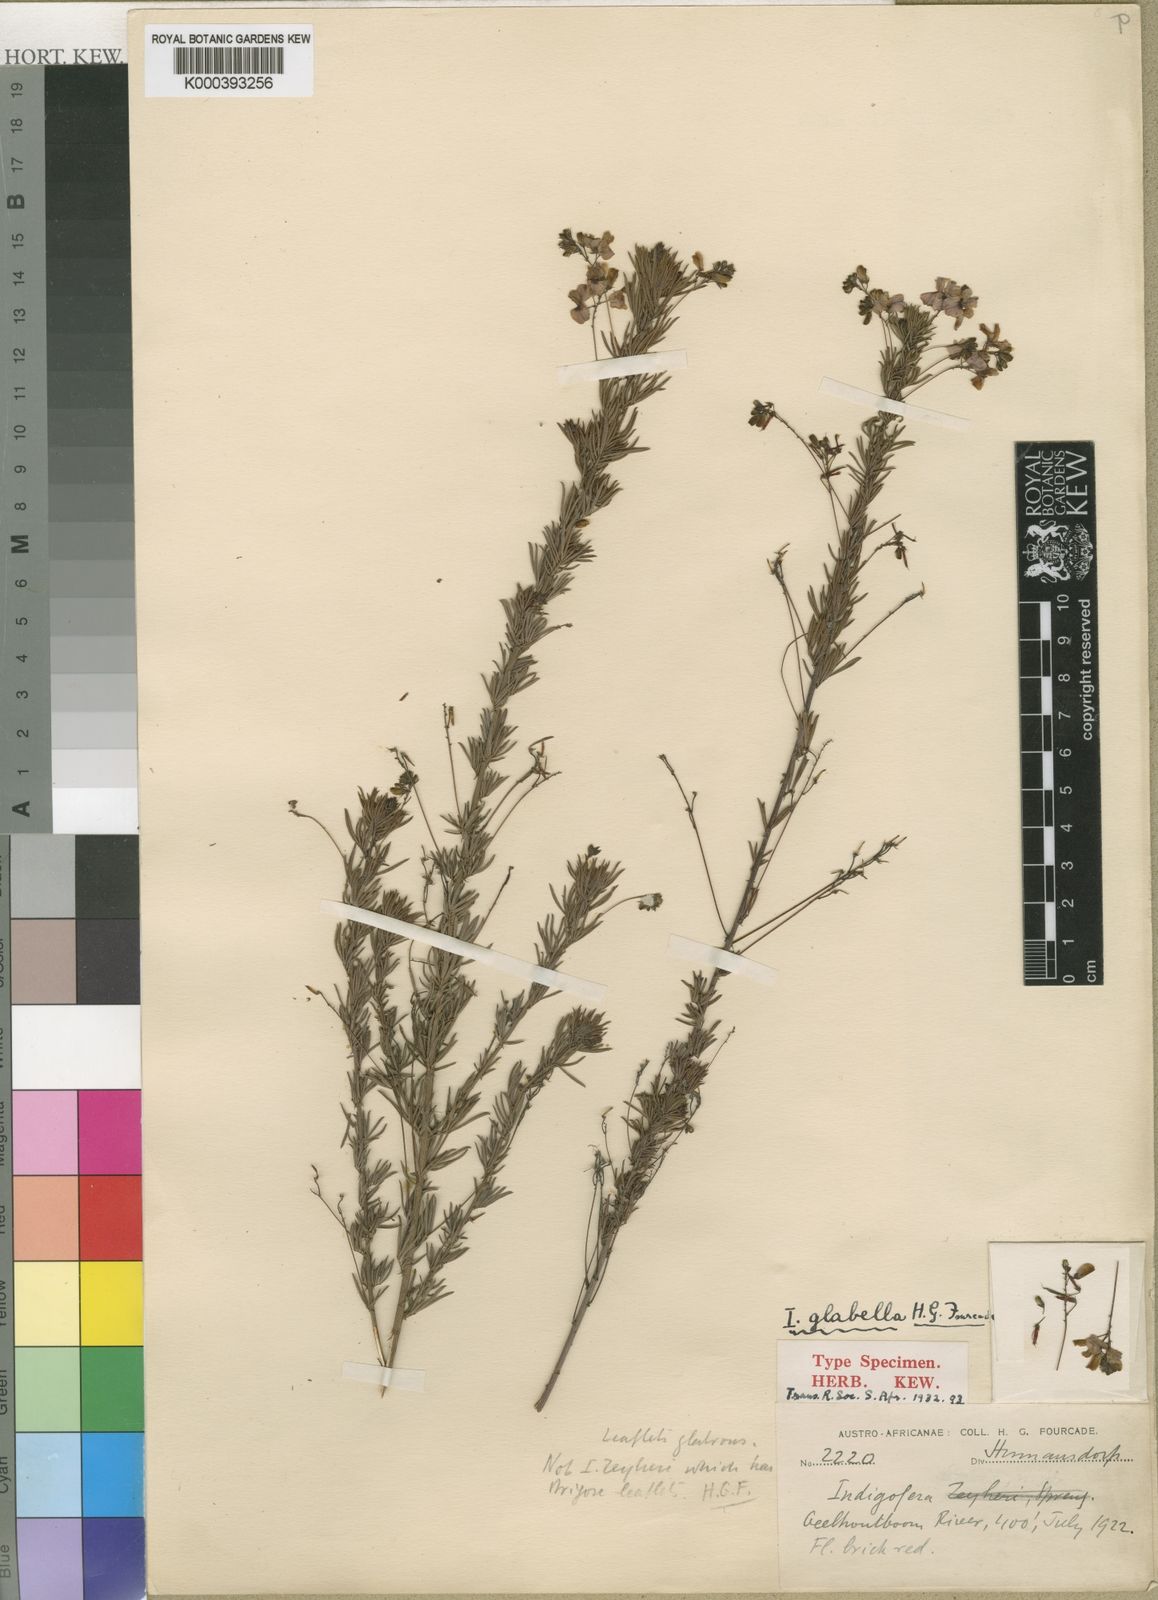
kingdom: Plantae
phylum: Tracheophyta
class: Magnoliopsida
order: Fabales
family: Fabaceae
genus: Indigofera
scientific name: Indigofera verrucosa
